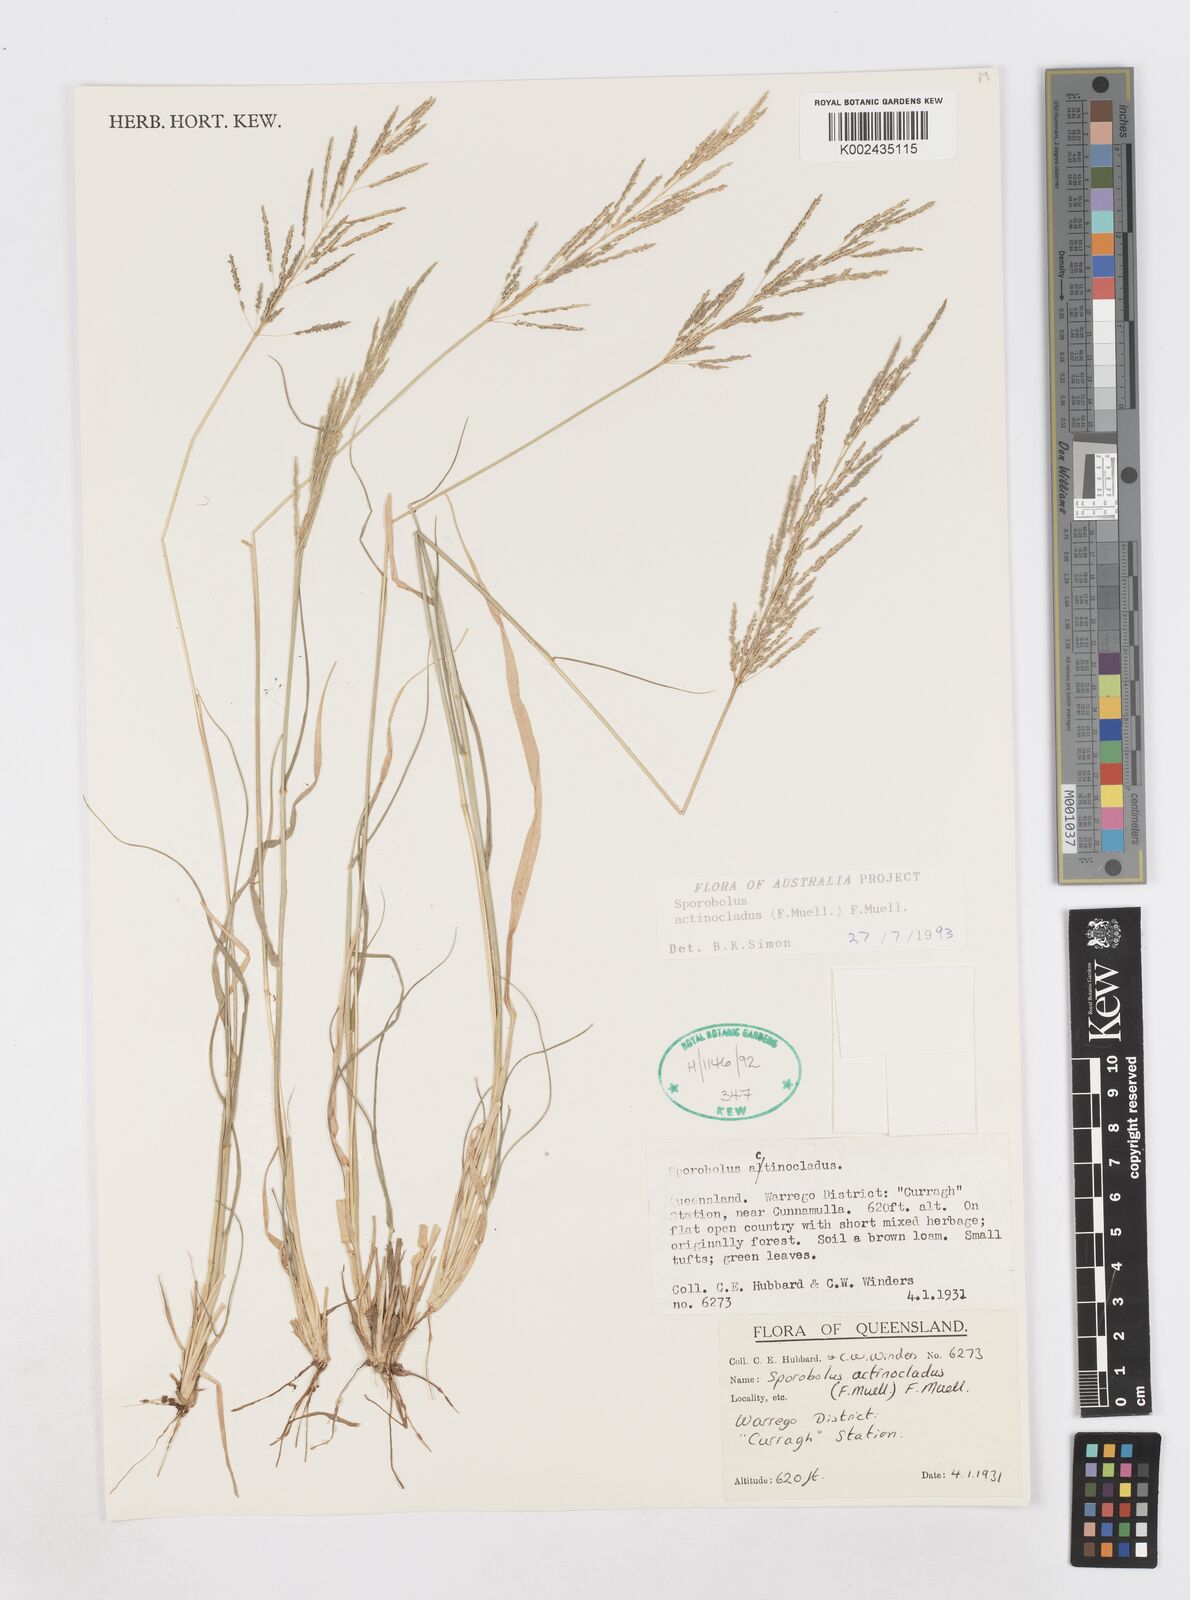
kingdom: Plantae
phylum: Tracheophyta
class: Liliopsida
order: Poales
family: Poaceae
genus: Sporobolus
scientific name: Sporobolus actinocladus
